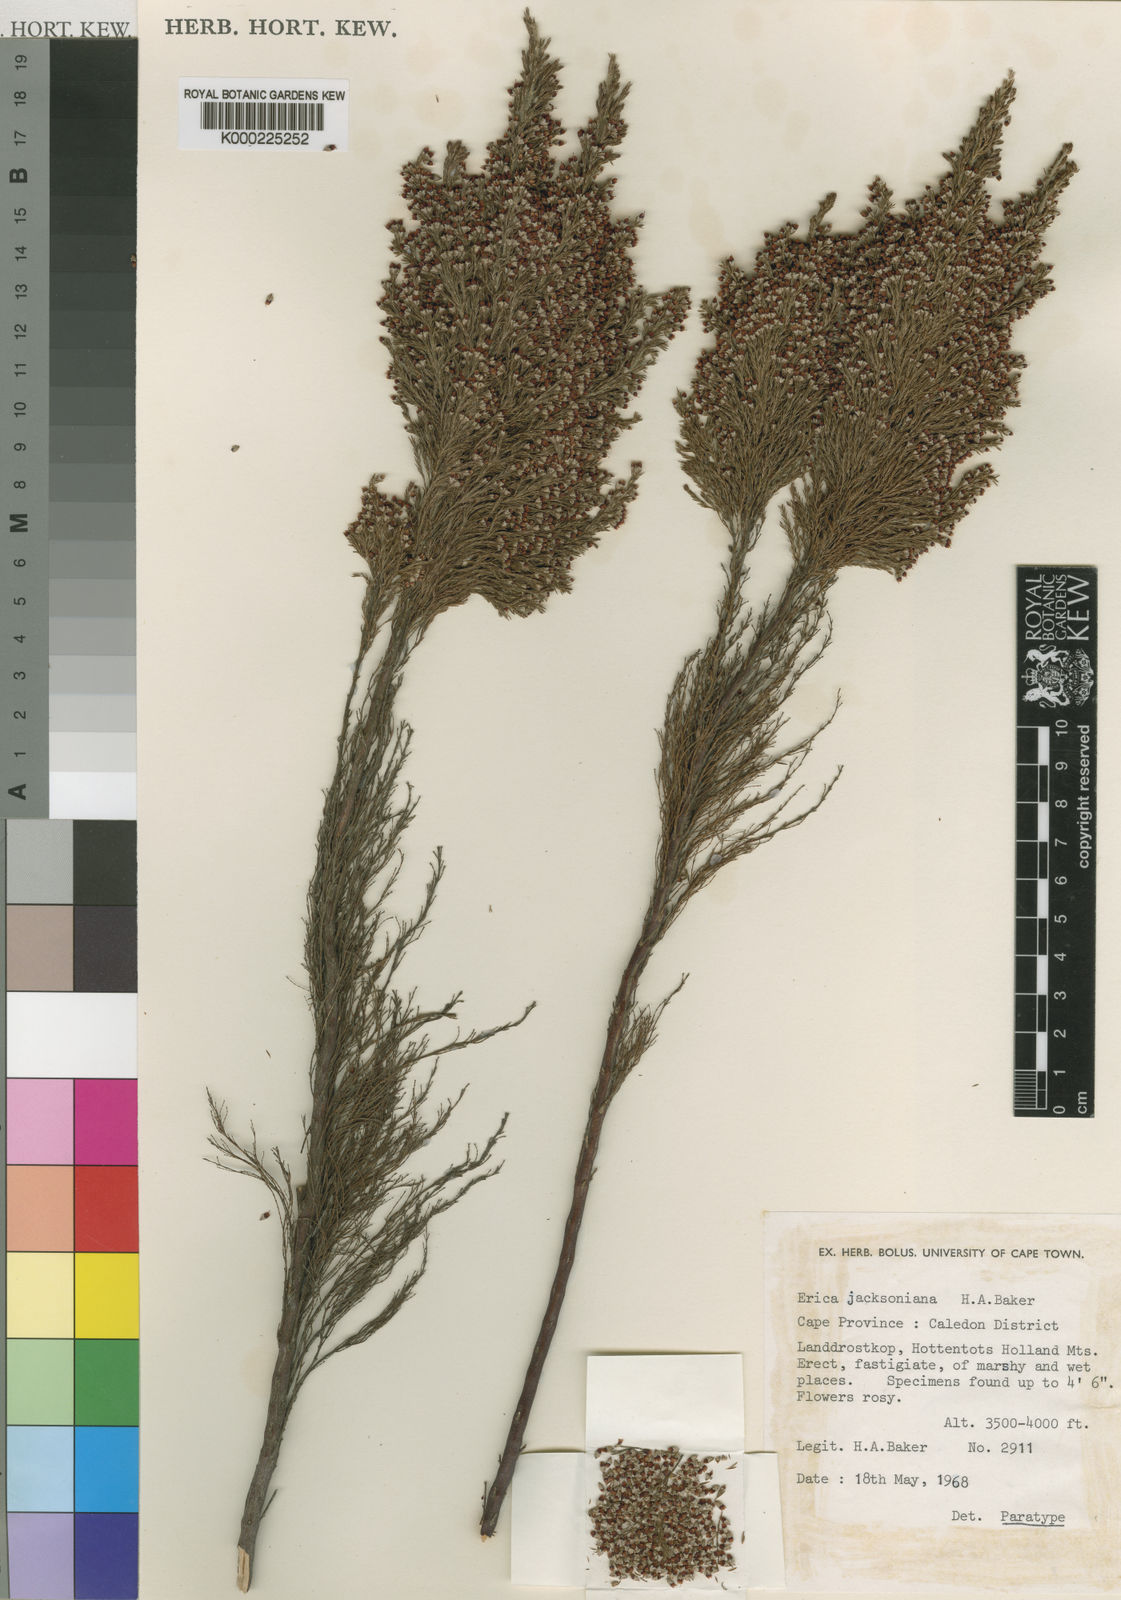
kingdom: Plantae
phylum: Tracheophyta
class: Magnoliopsida
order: Ericales
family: Ericaceae
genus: Erica
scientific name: Erica jacksoniana
